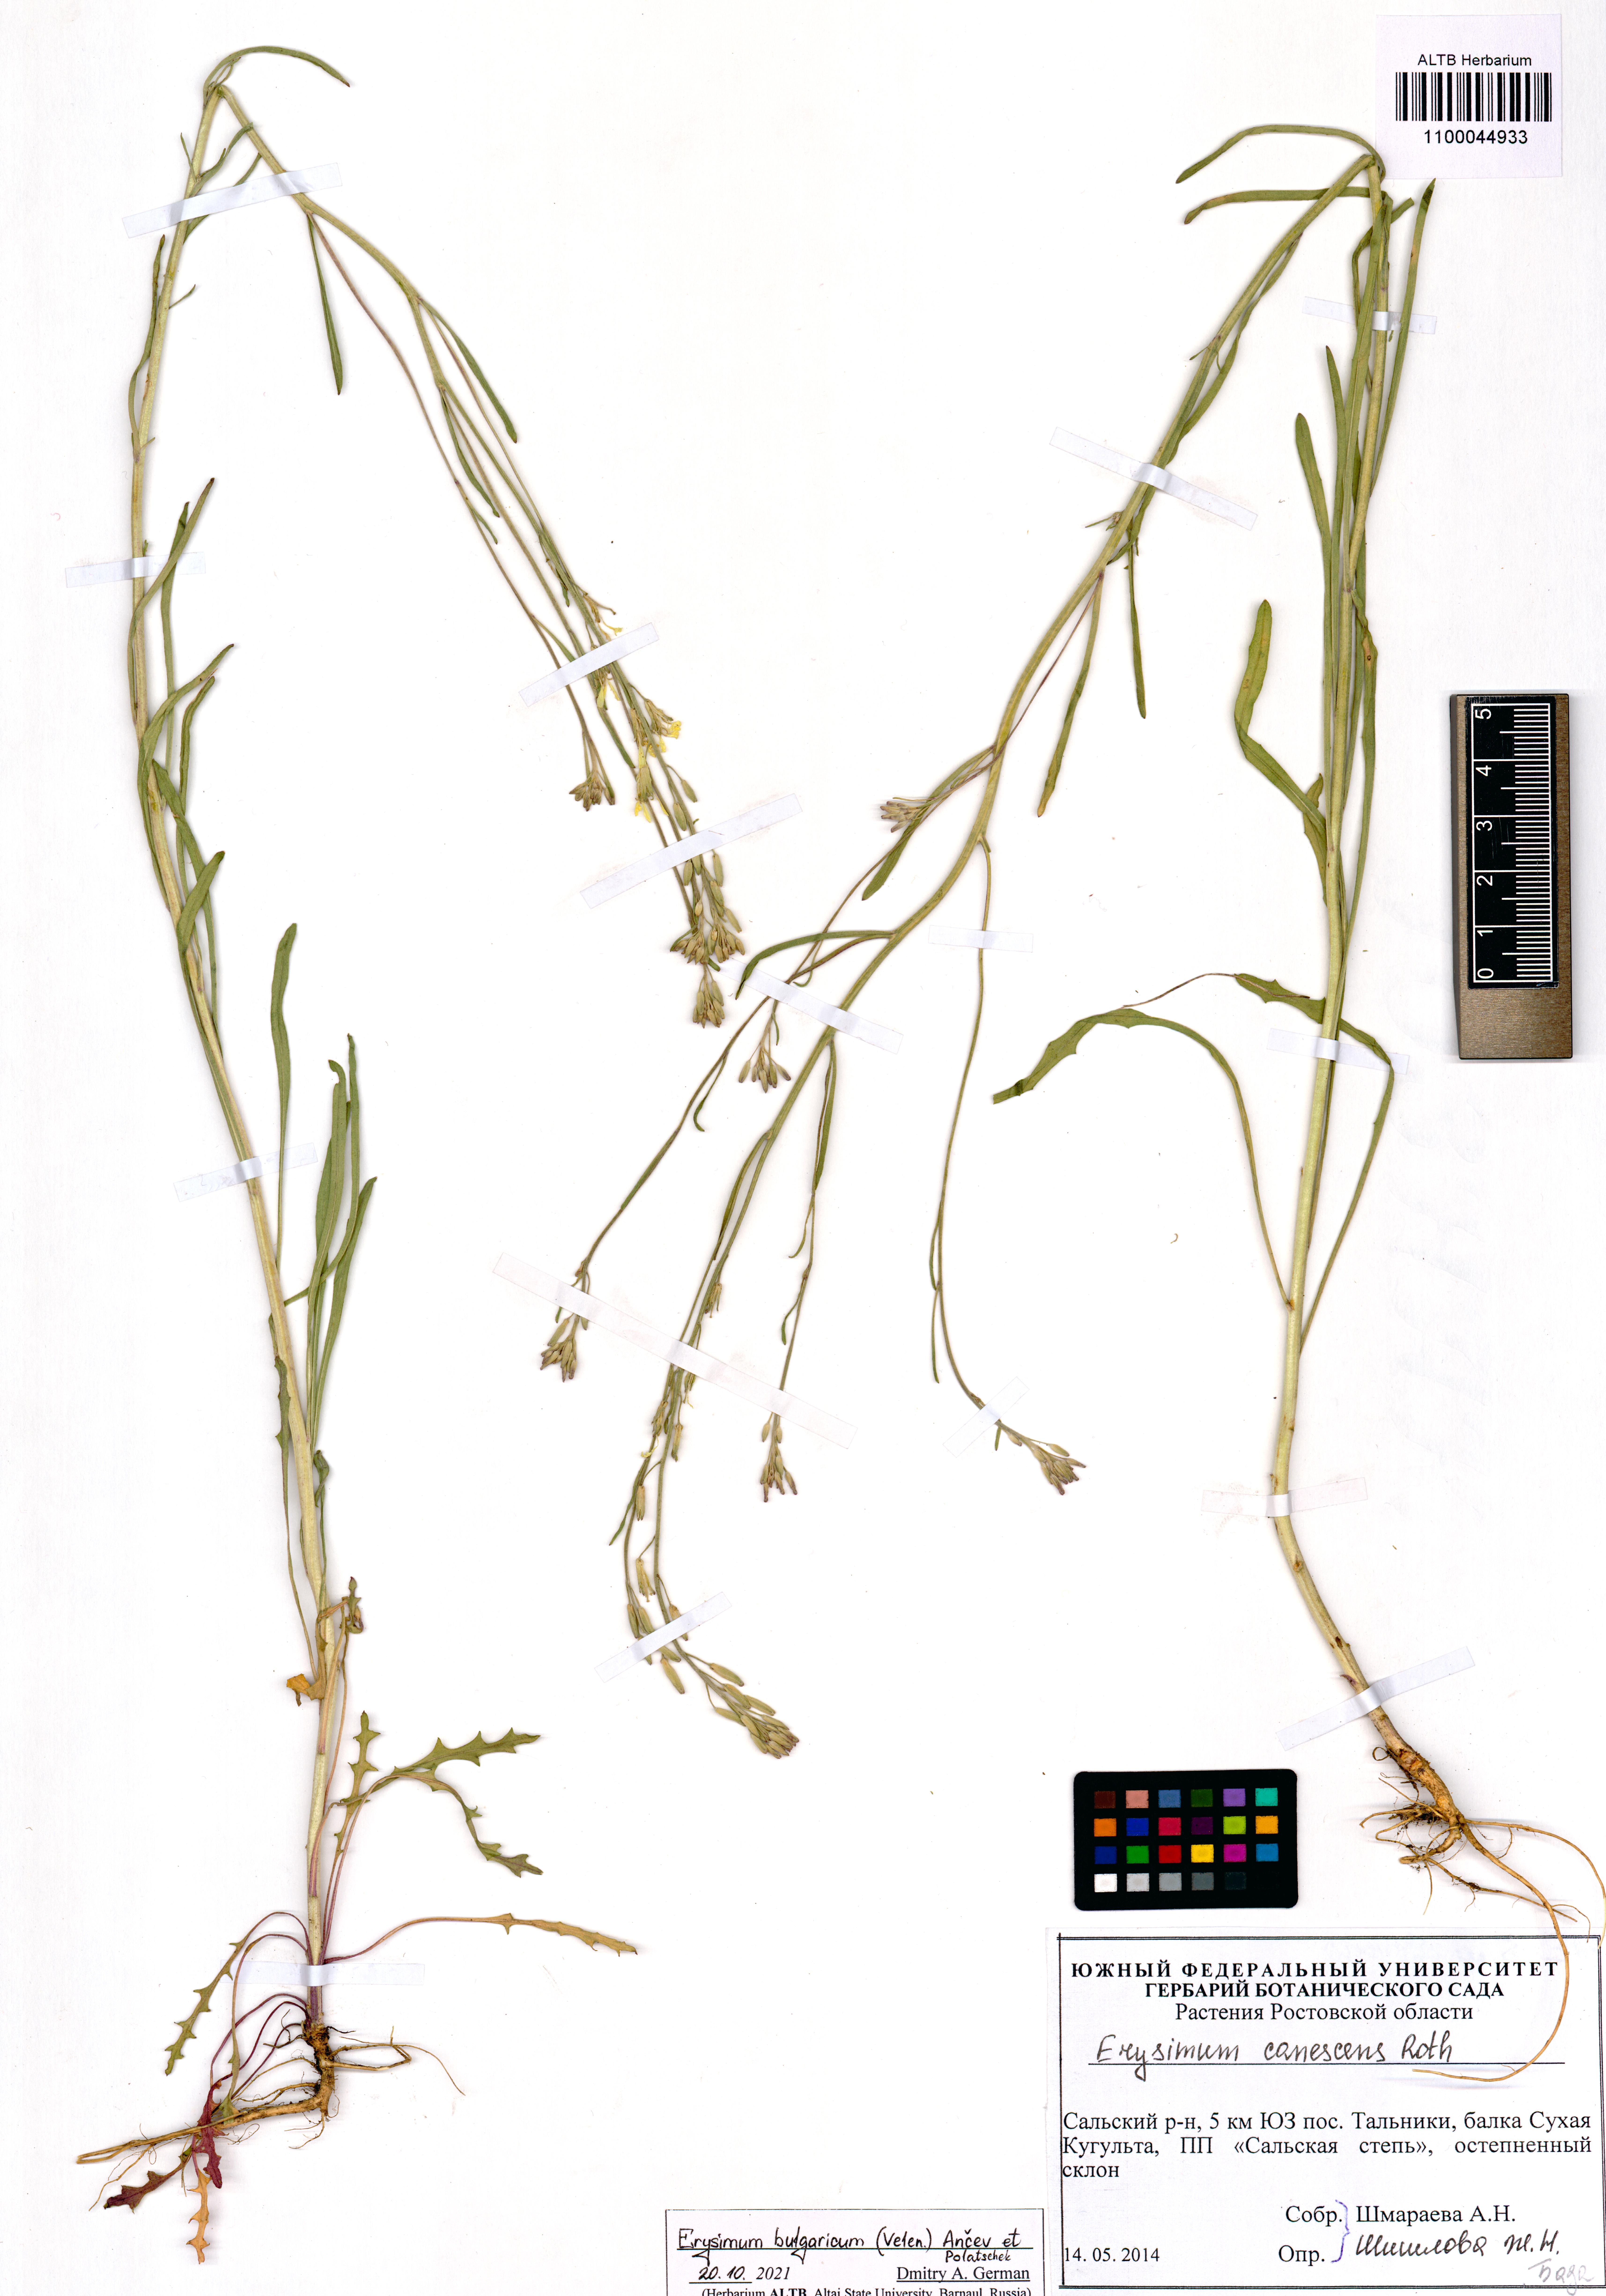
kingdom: Plantae
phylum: Tracheophyta
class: Magnoliopsida
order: Brassicales
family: Brassicaceae
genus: Erysimum
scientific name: Erysimum bulgaricum
